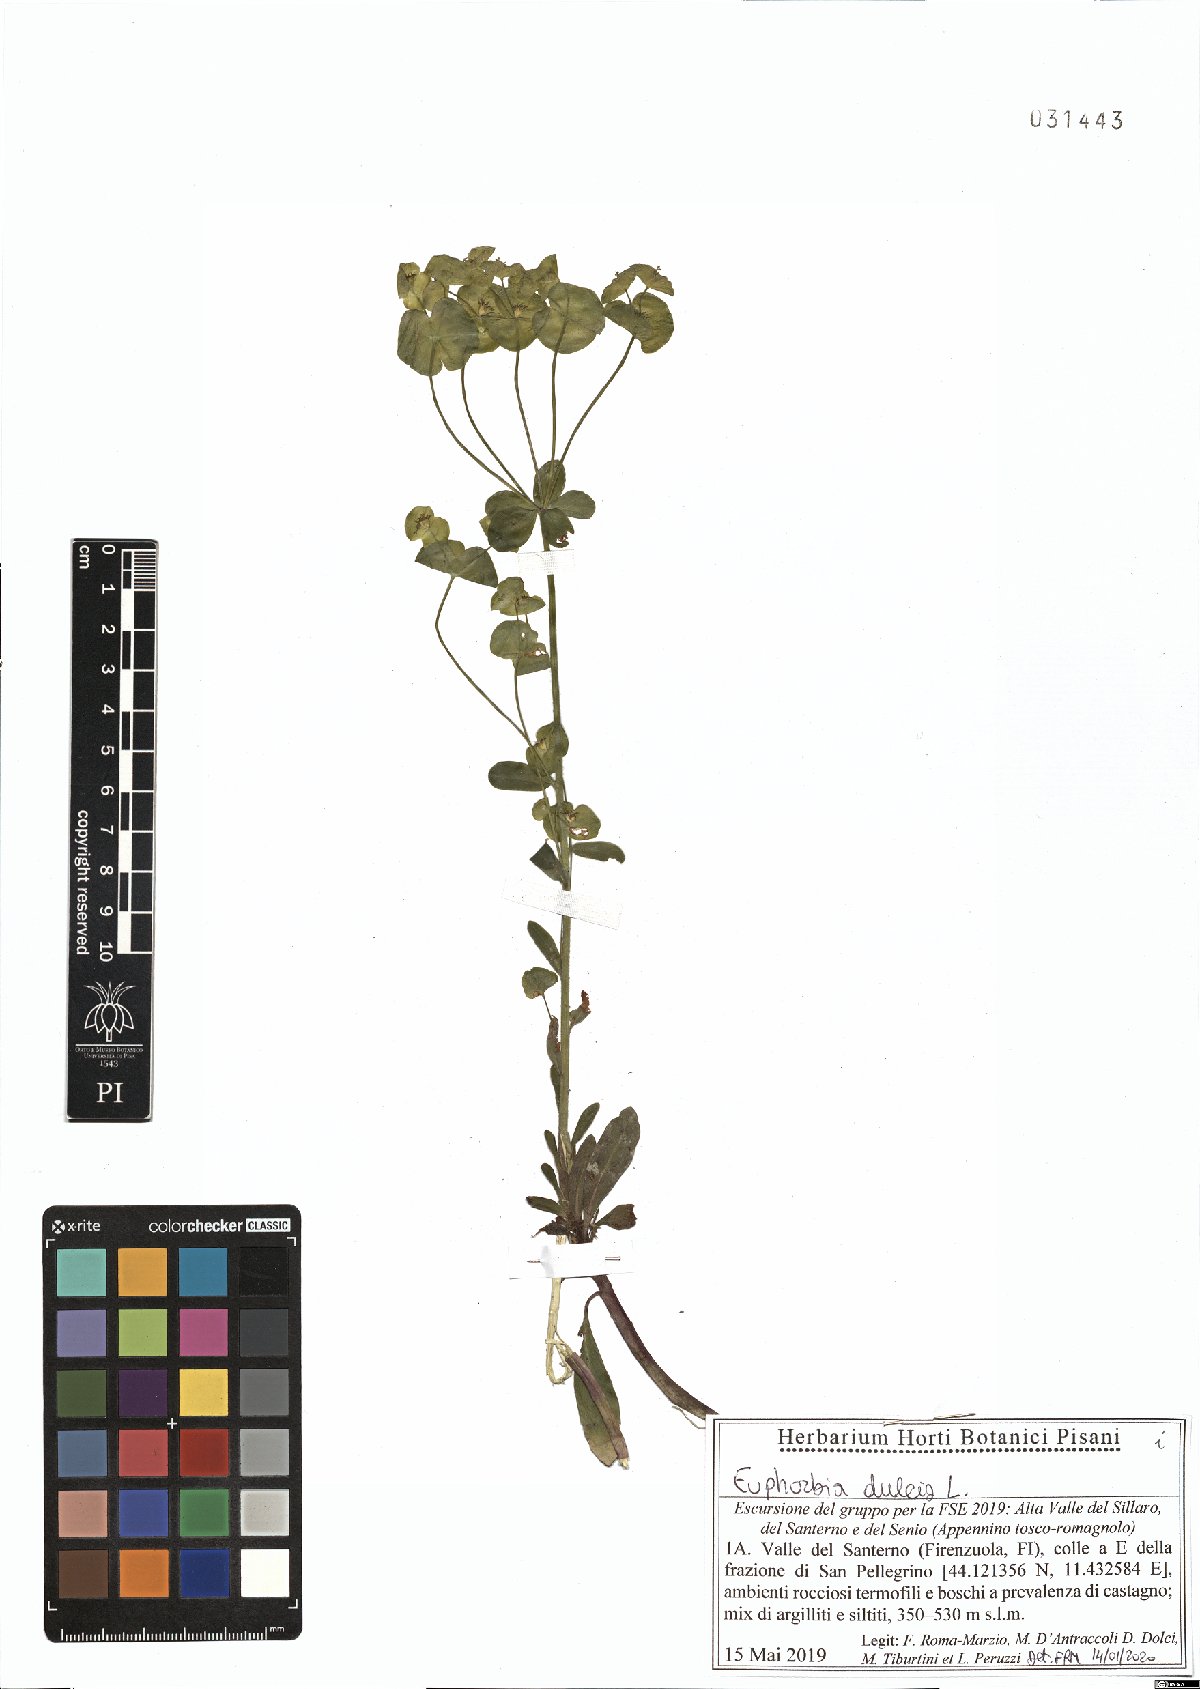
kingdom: Plantae
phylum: Tracheophyta
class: Magnoliopsida
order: Malpighiales
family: Euphorbiaceae
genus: Euphorbia
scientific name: Euphorbia dulcis
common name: Sweet spurge
